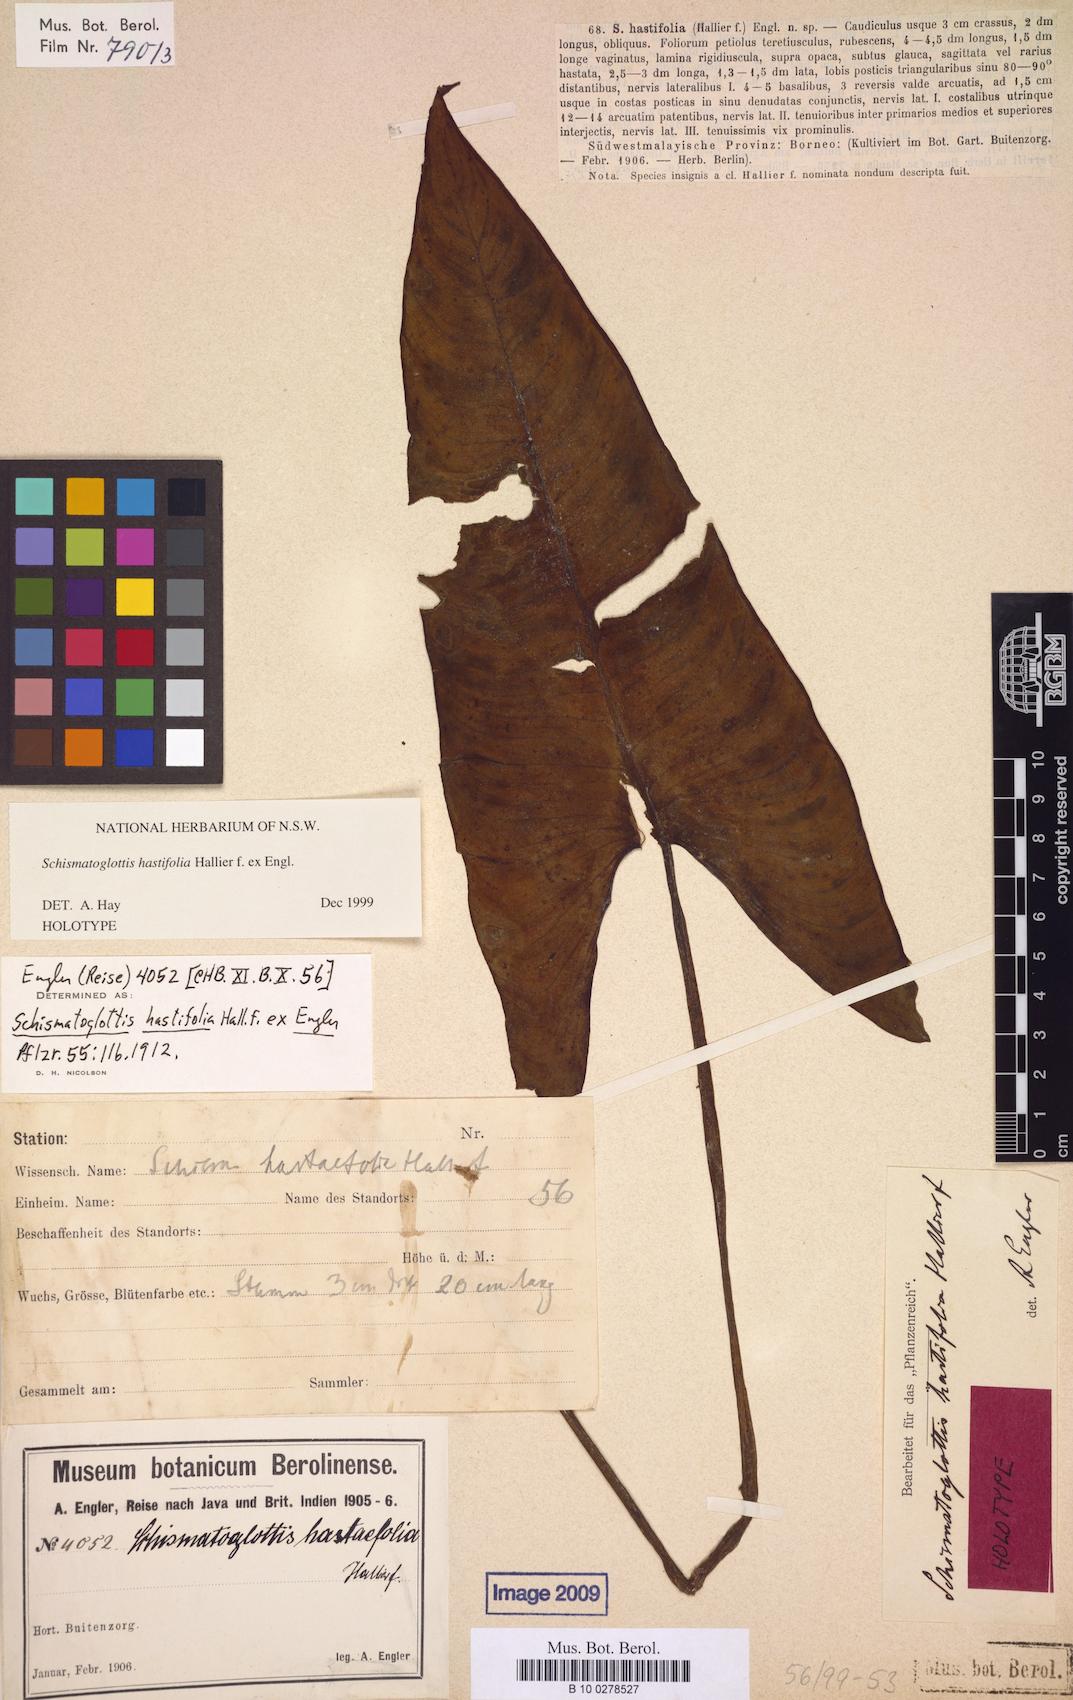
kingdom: Plantae
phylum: Tracheophyta
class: Liliopsida
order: Alismatales
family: Araceae
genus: Apoballis
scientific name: Apoballis hastifolia
